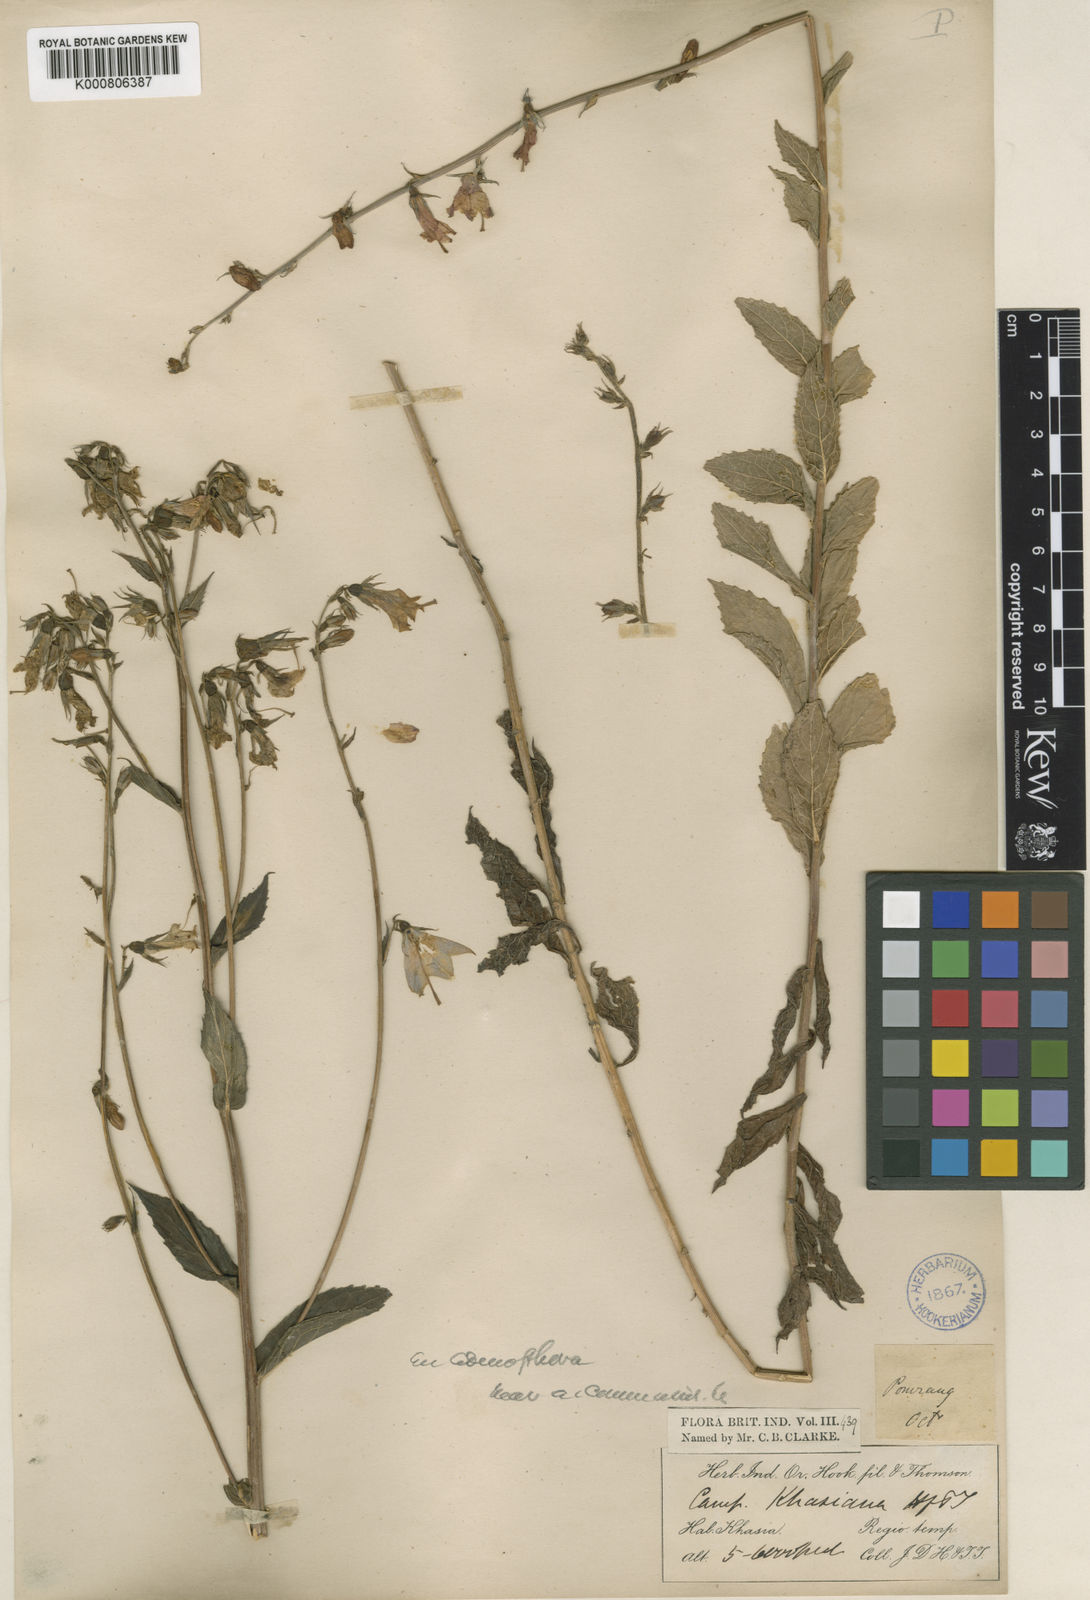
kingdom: Plantae
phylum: Tracheophyta
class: Magnoliopsida
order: Asterales
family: Campanulaceae
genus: Adenophora
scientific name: Adenophora
